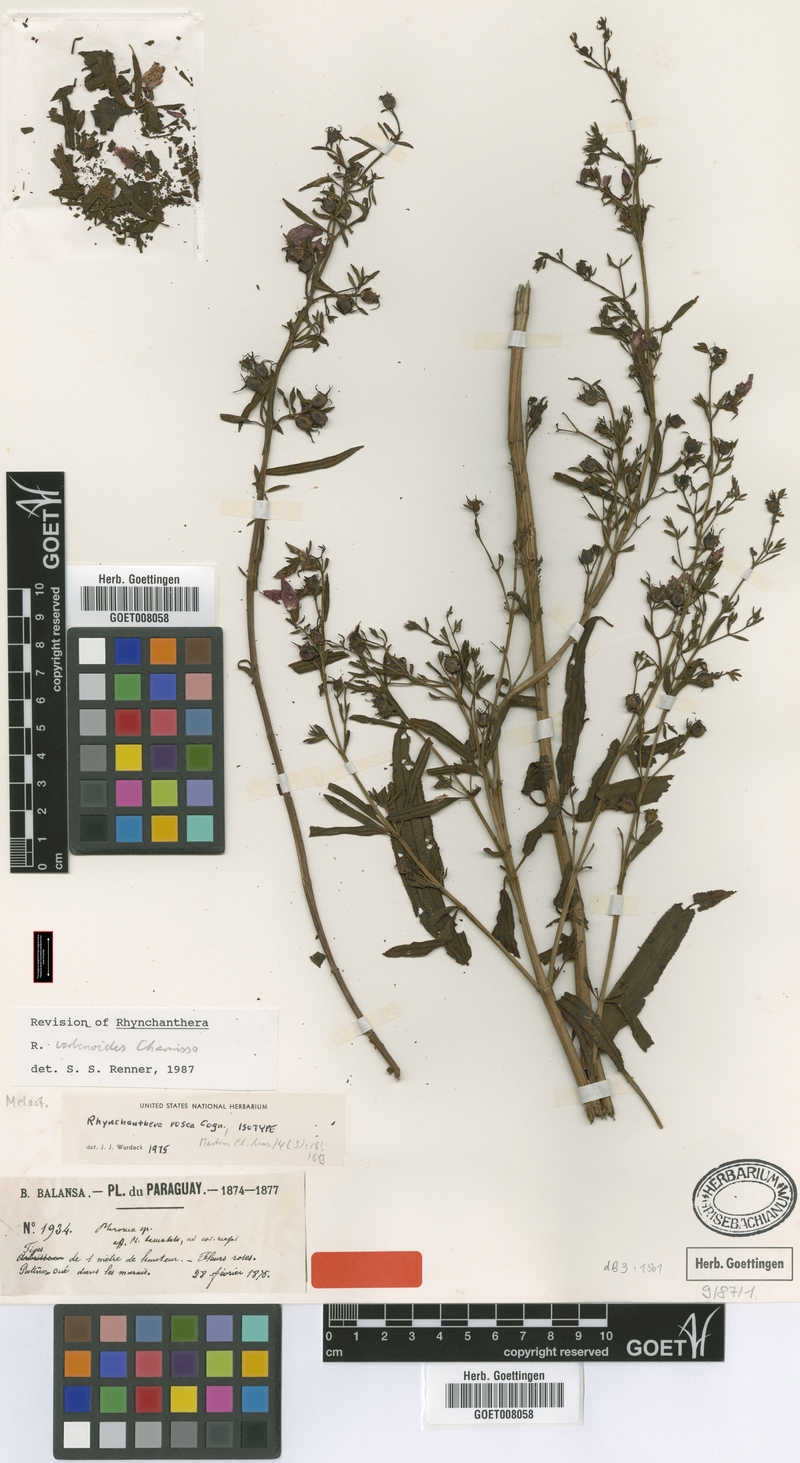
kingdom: Plantae
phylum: Tracheophyta
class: Magnoliopsida
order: Myrtales
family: Melastomataceae
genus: Rhynchanthera
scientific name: Rhynchanthera verbenoides
